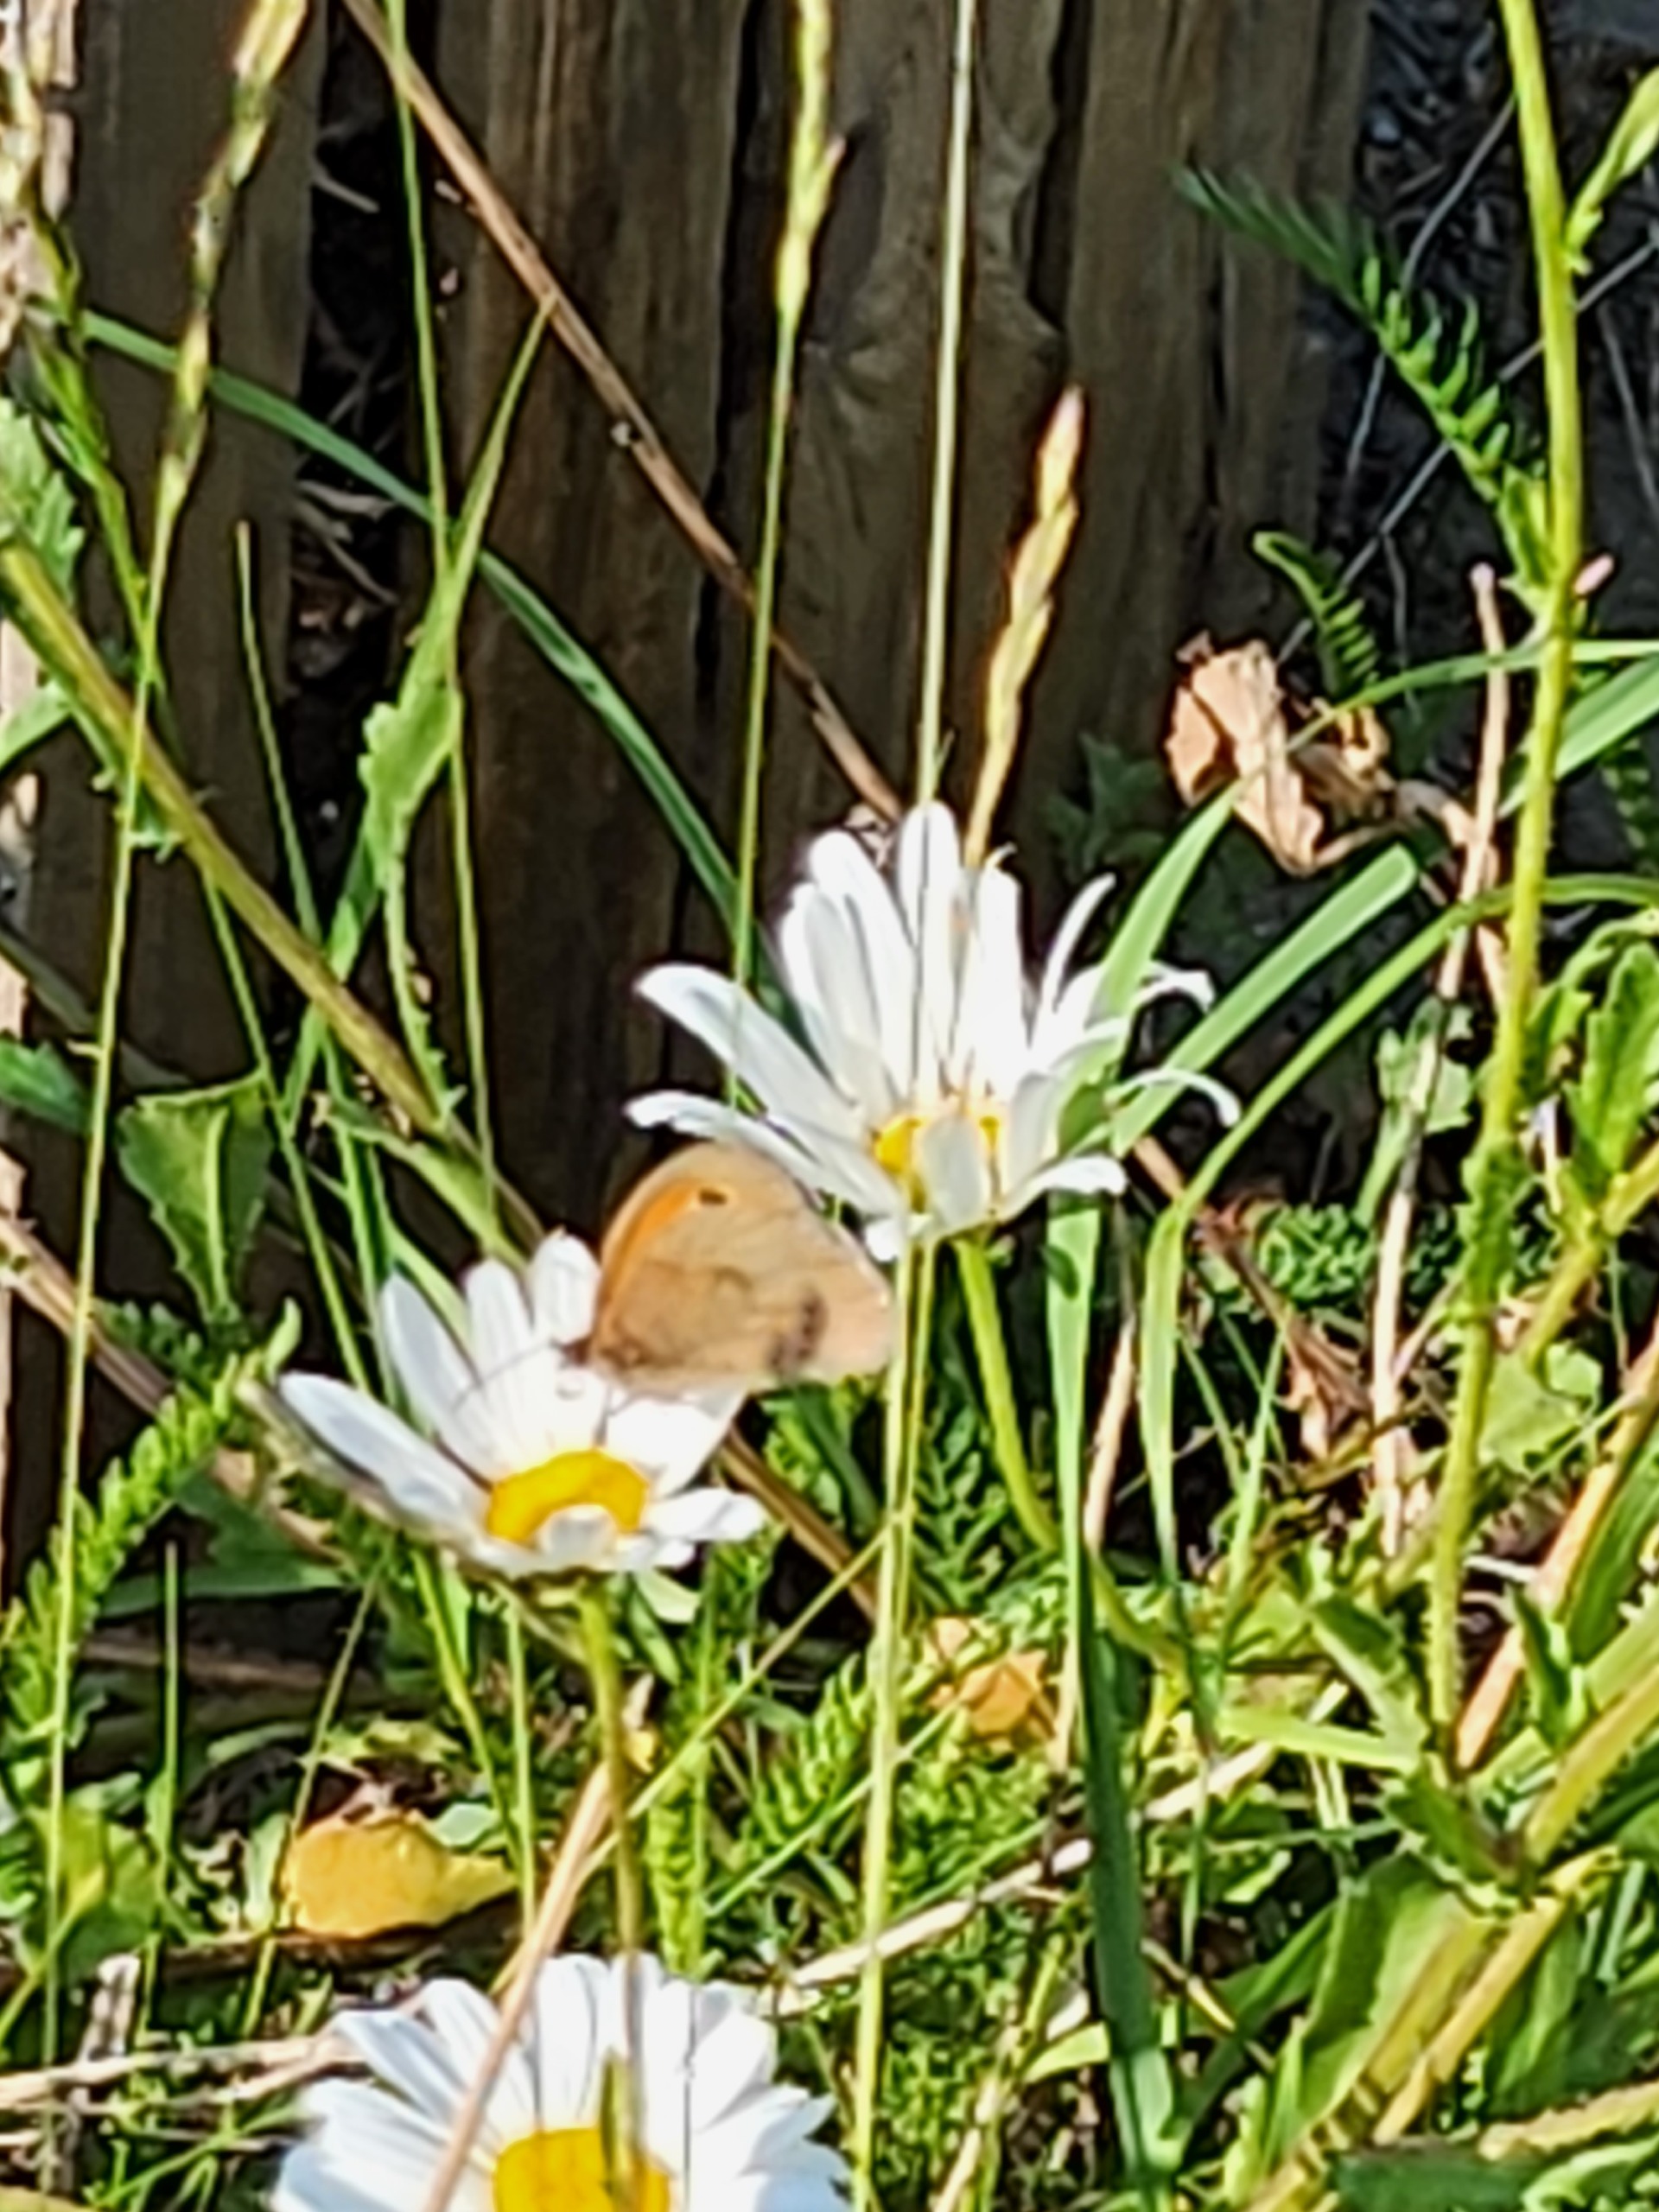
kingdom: Animalia
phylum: Arthropoda
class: Insecta
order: Lepidoptera
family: Nymphalidae
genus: Maniola
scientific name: Maniola jurtina
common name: Græsrandøje
